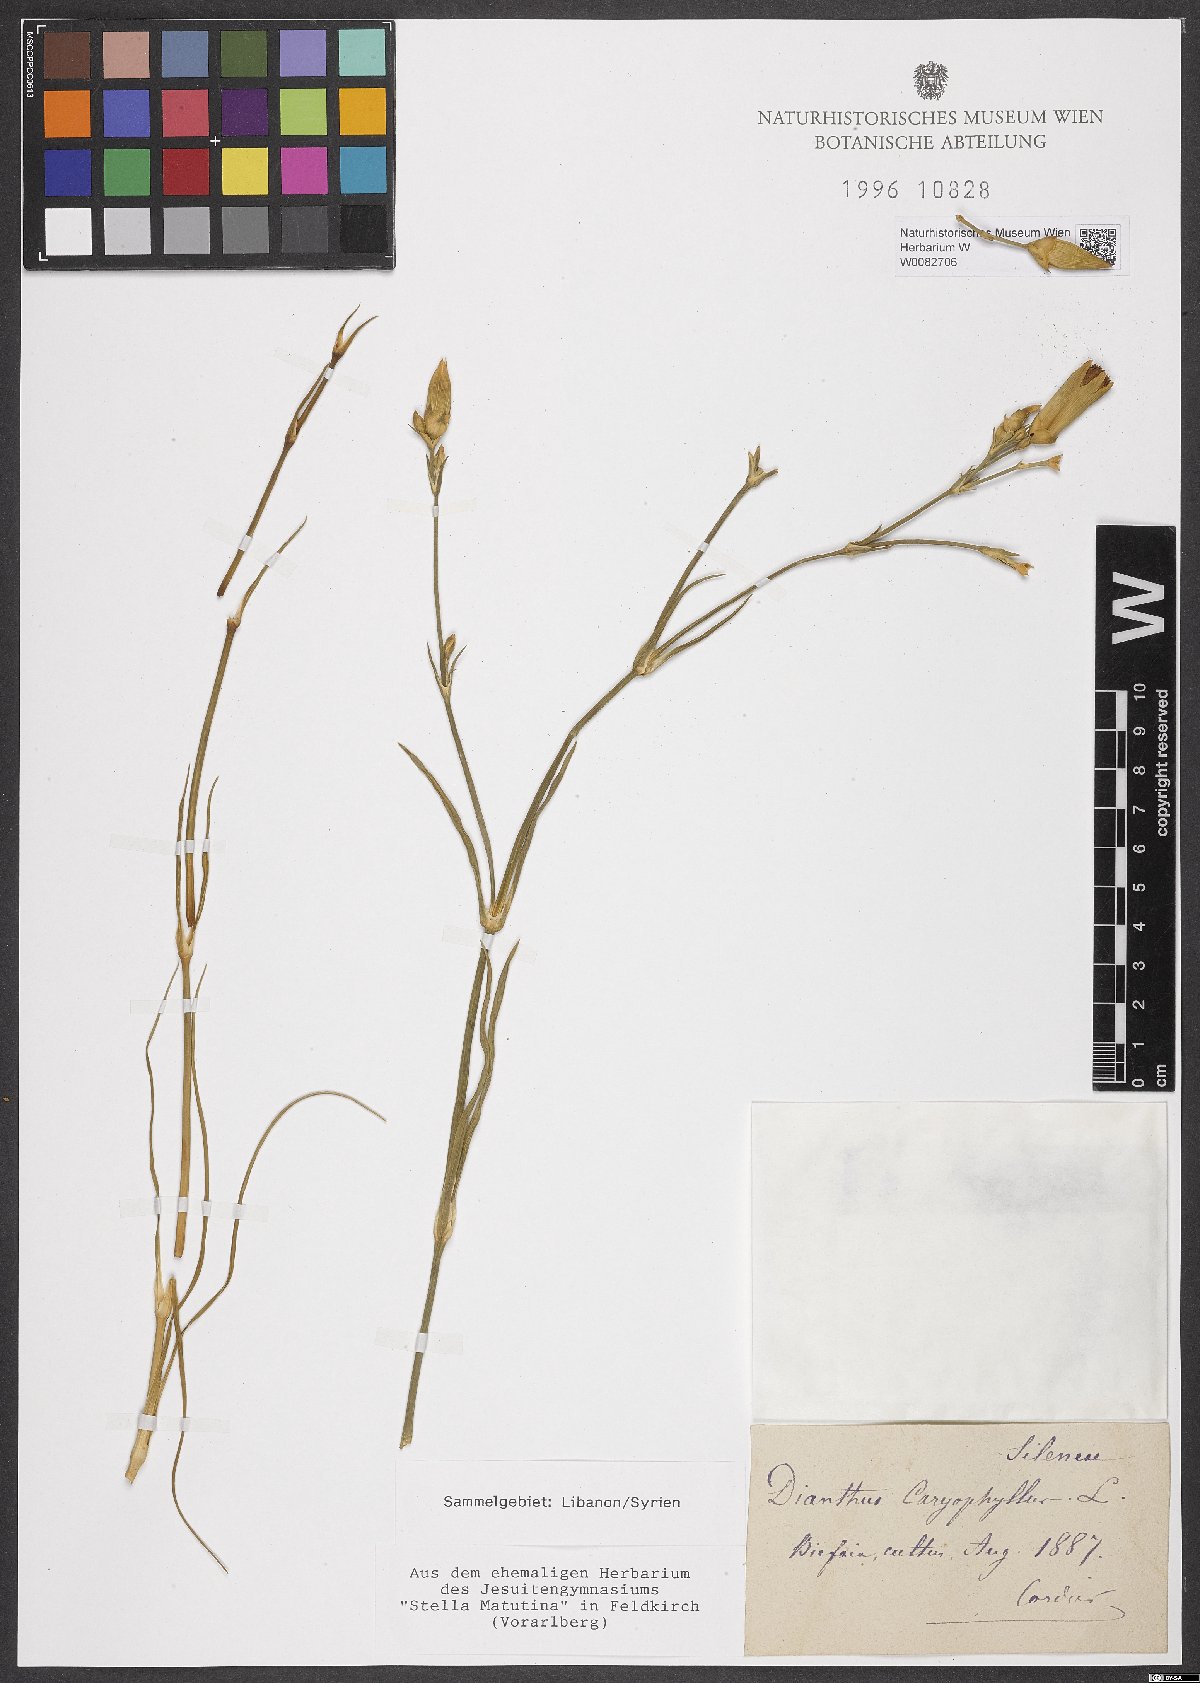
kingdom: Plantae
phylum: Tracheophyta
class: Magnoliopsida
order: Caryophyllales
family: Caryophyllaceae
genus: Dianthus
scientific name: Dianthus caryophyllus
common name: Clove pink
